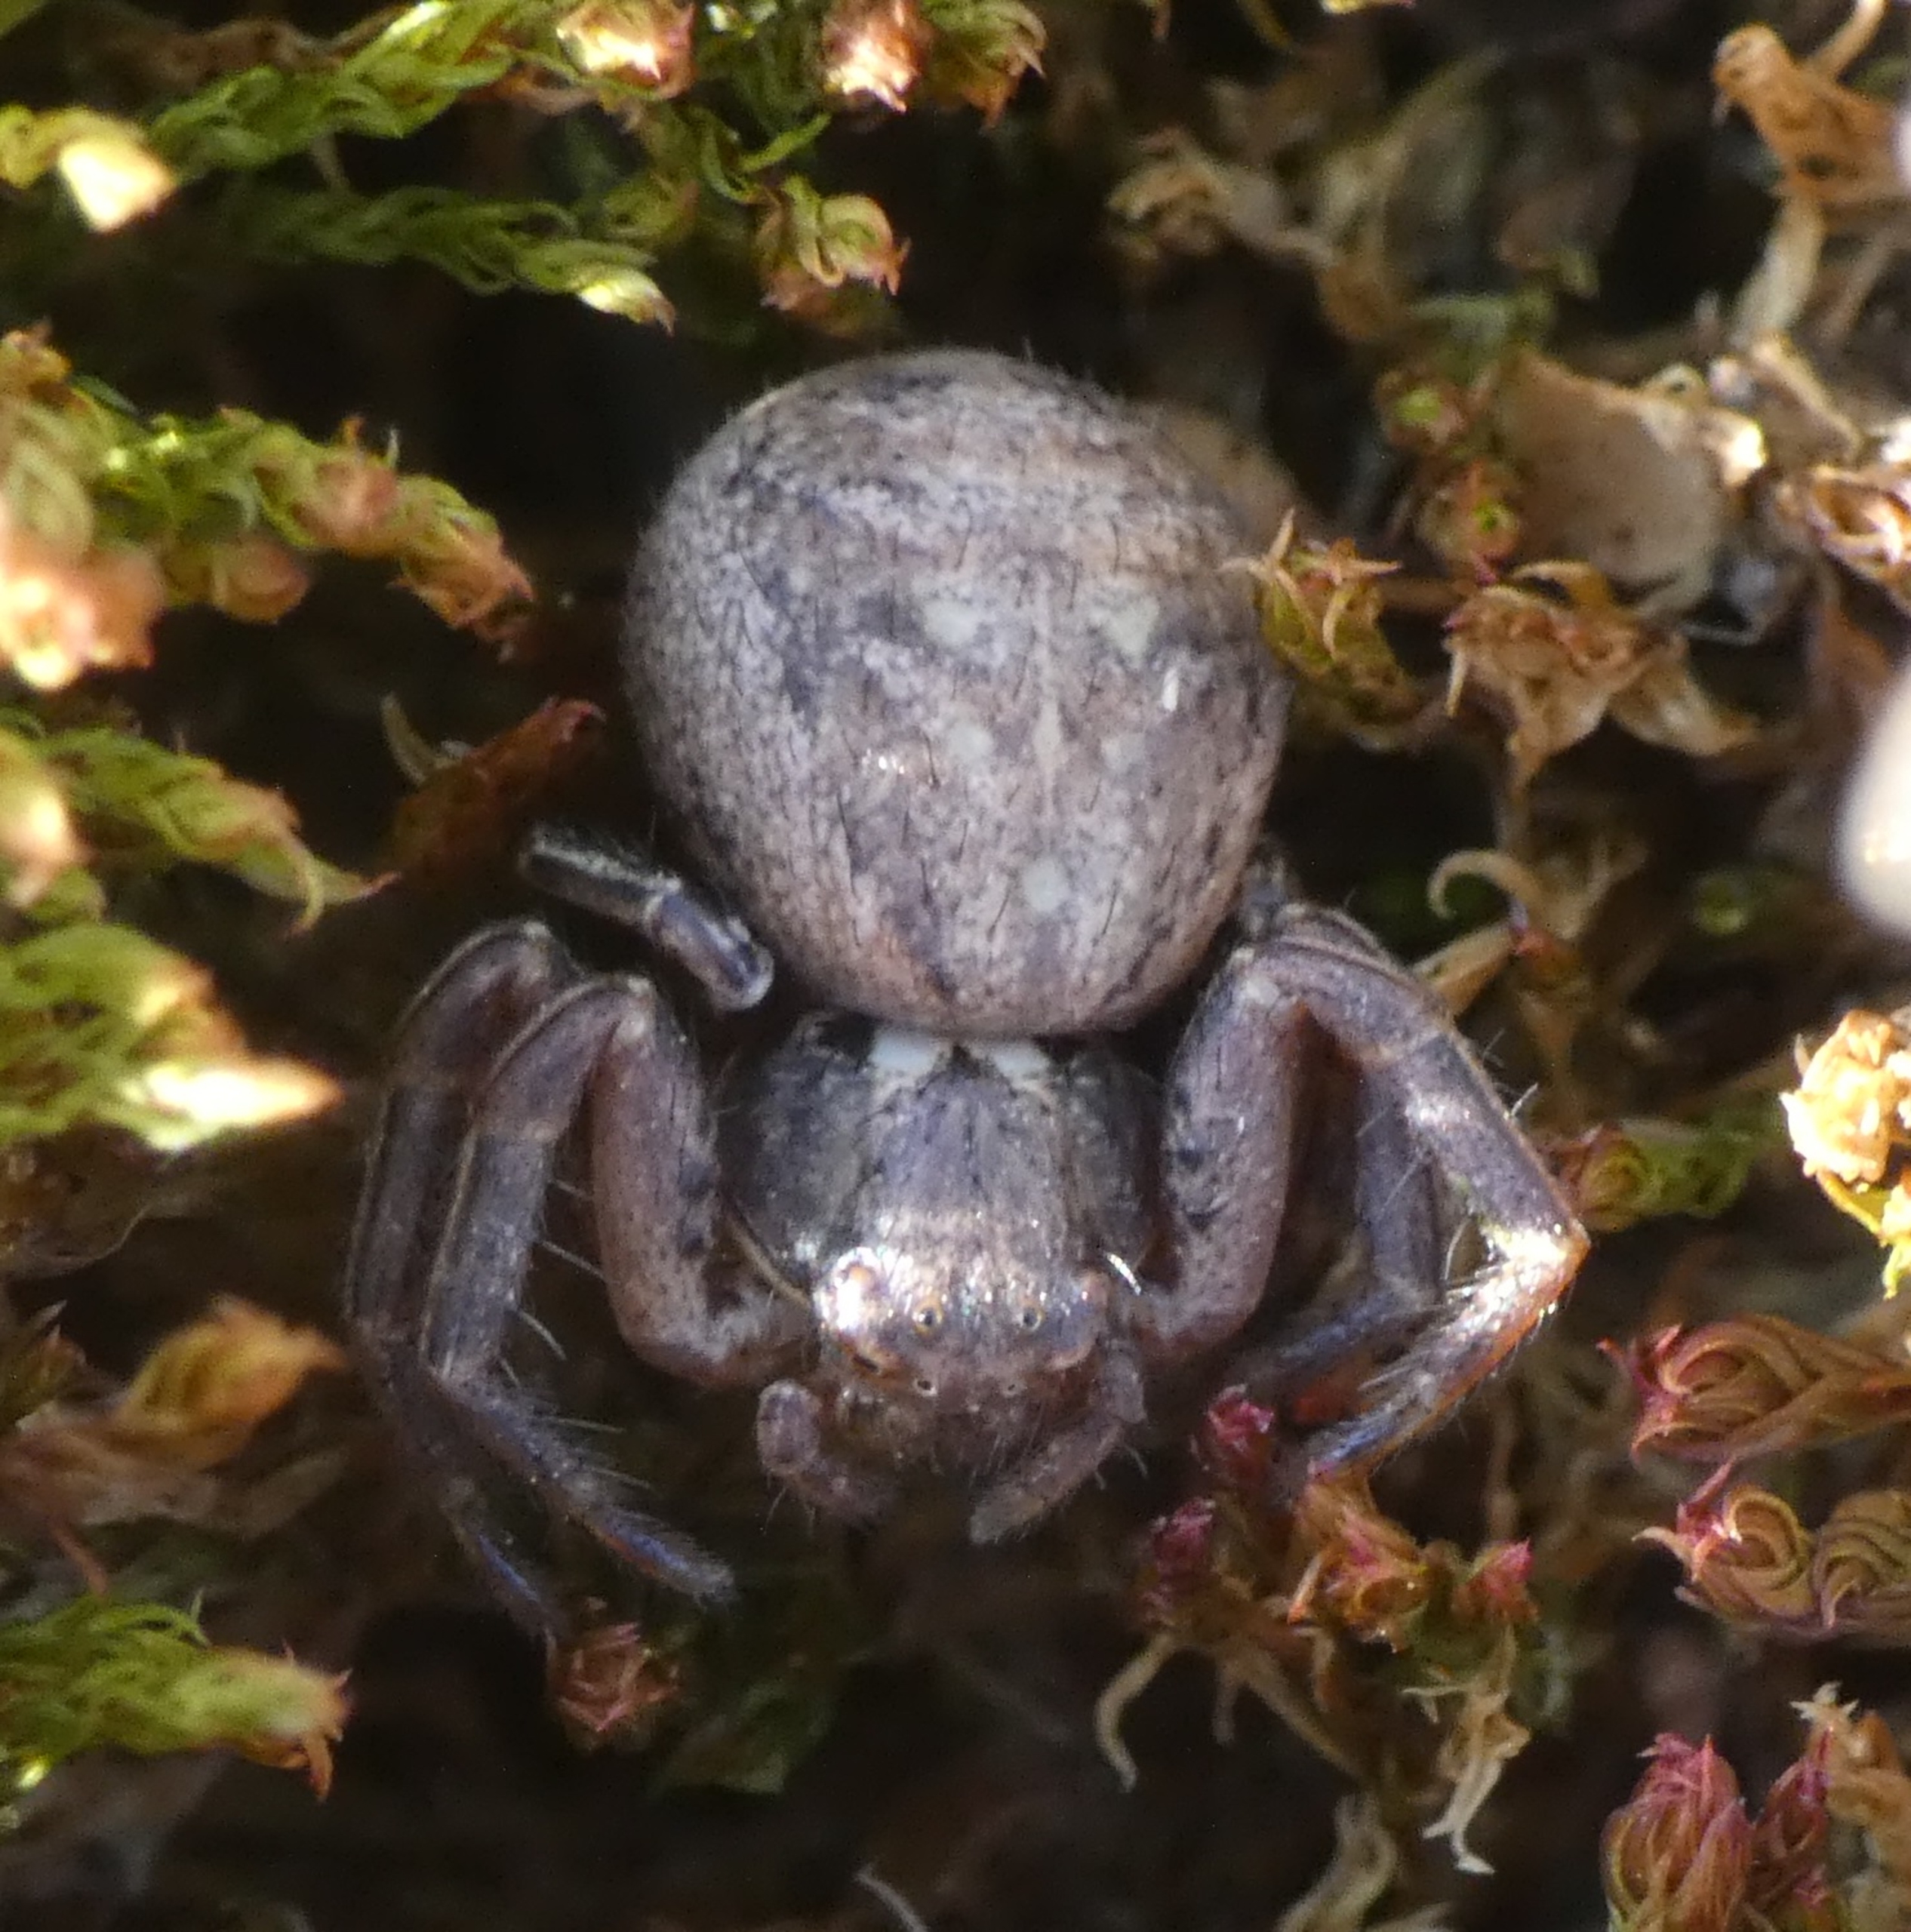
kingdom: Animalia
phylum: Arthropoda
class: Arachnida
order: Araneae
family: Thomisidae
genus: Xysticus
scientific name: Xysticus
